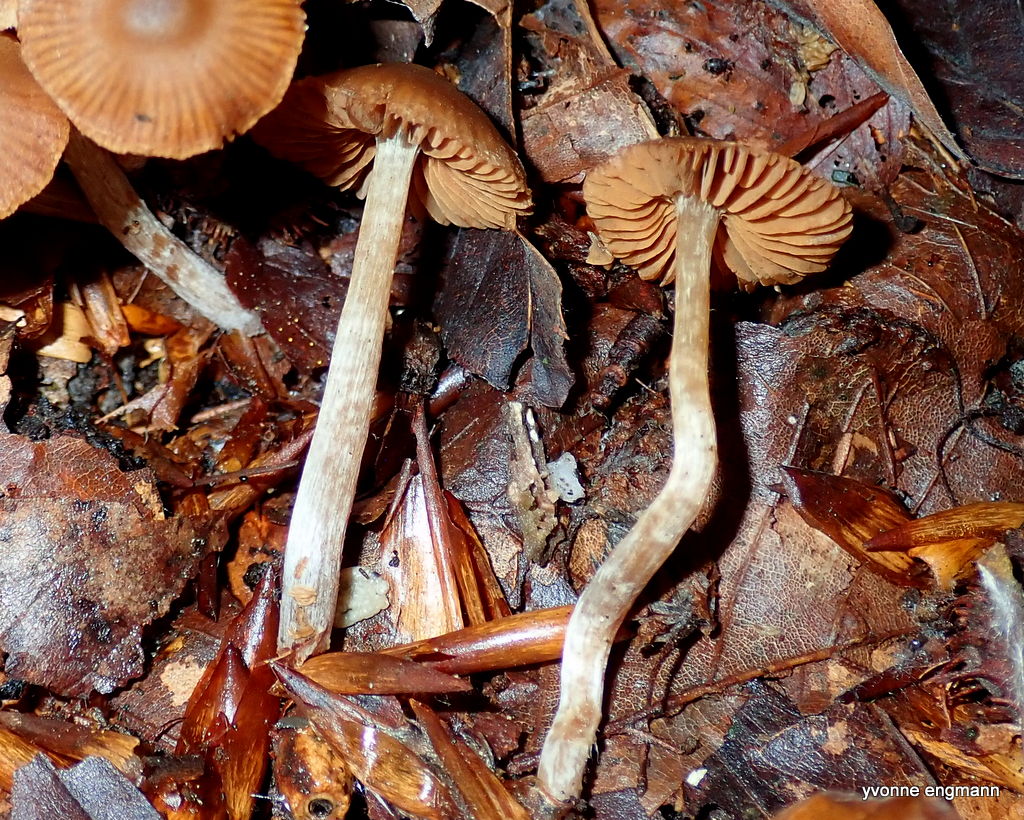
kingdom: Fungi
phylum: Basidiomycota
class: Agaricomycetes
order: Agaricales
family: Cortinariaceae
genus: Cortinarius
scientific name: Cortinarius
